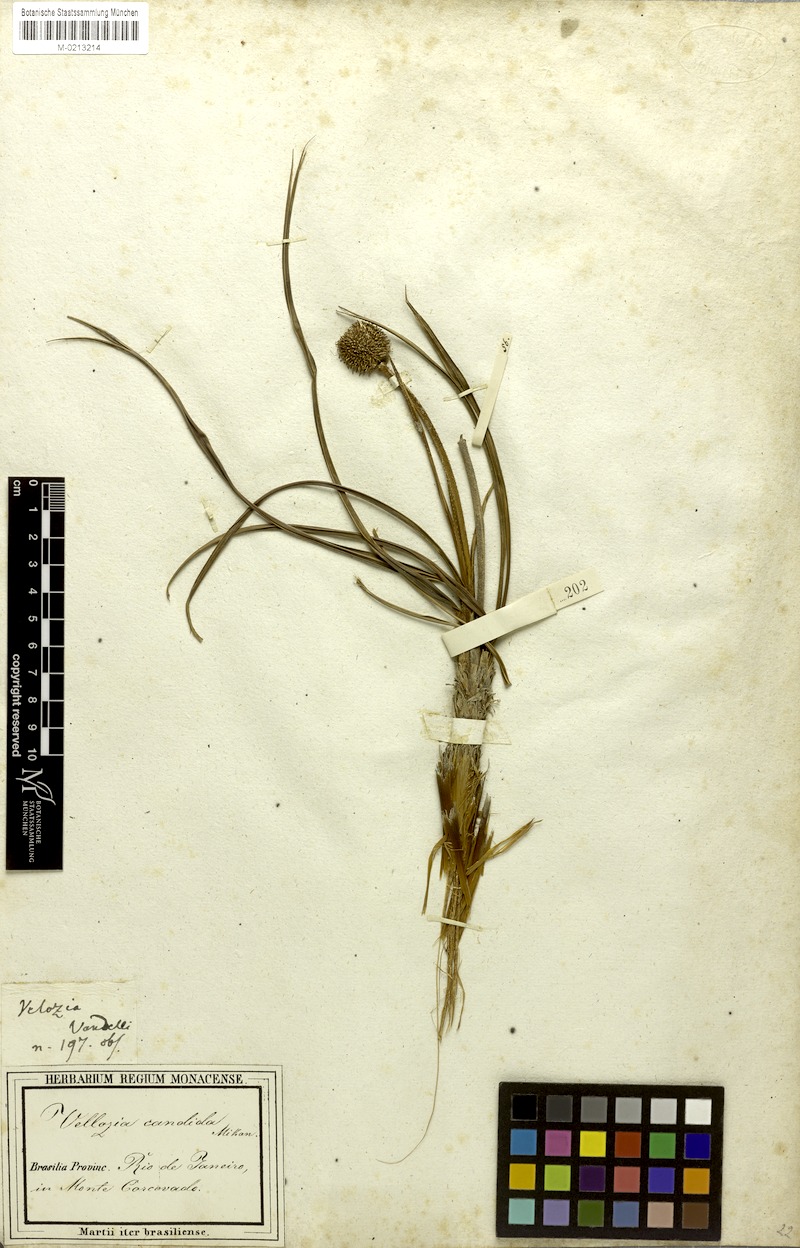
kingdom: Plantae
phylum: Tracheophyta
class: Liliopsida
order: Pandanales
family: Velloziaceae
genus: Vellozia
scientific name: Vellozia candida
